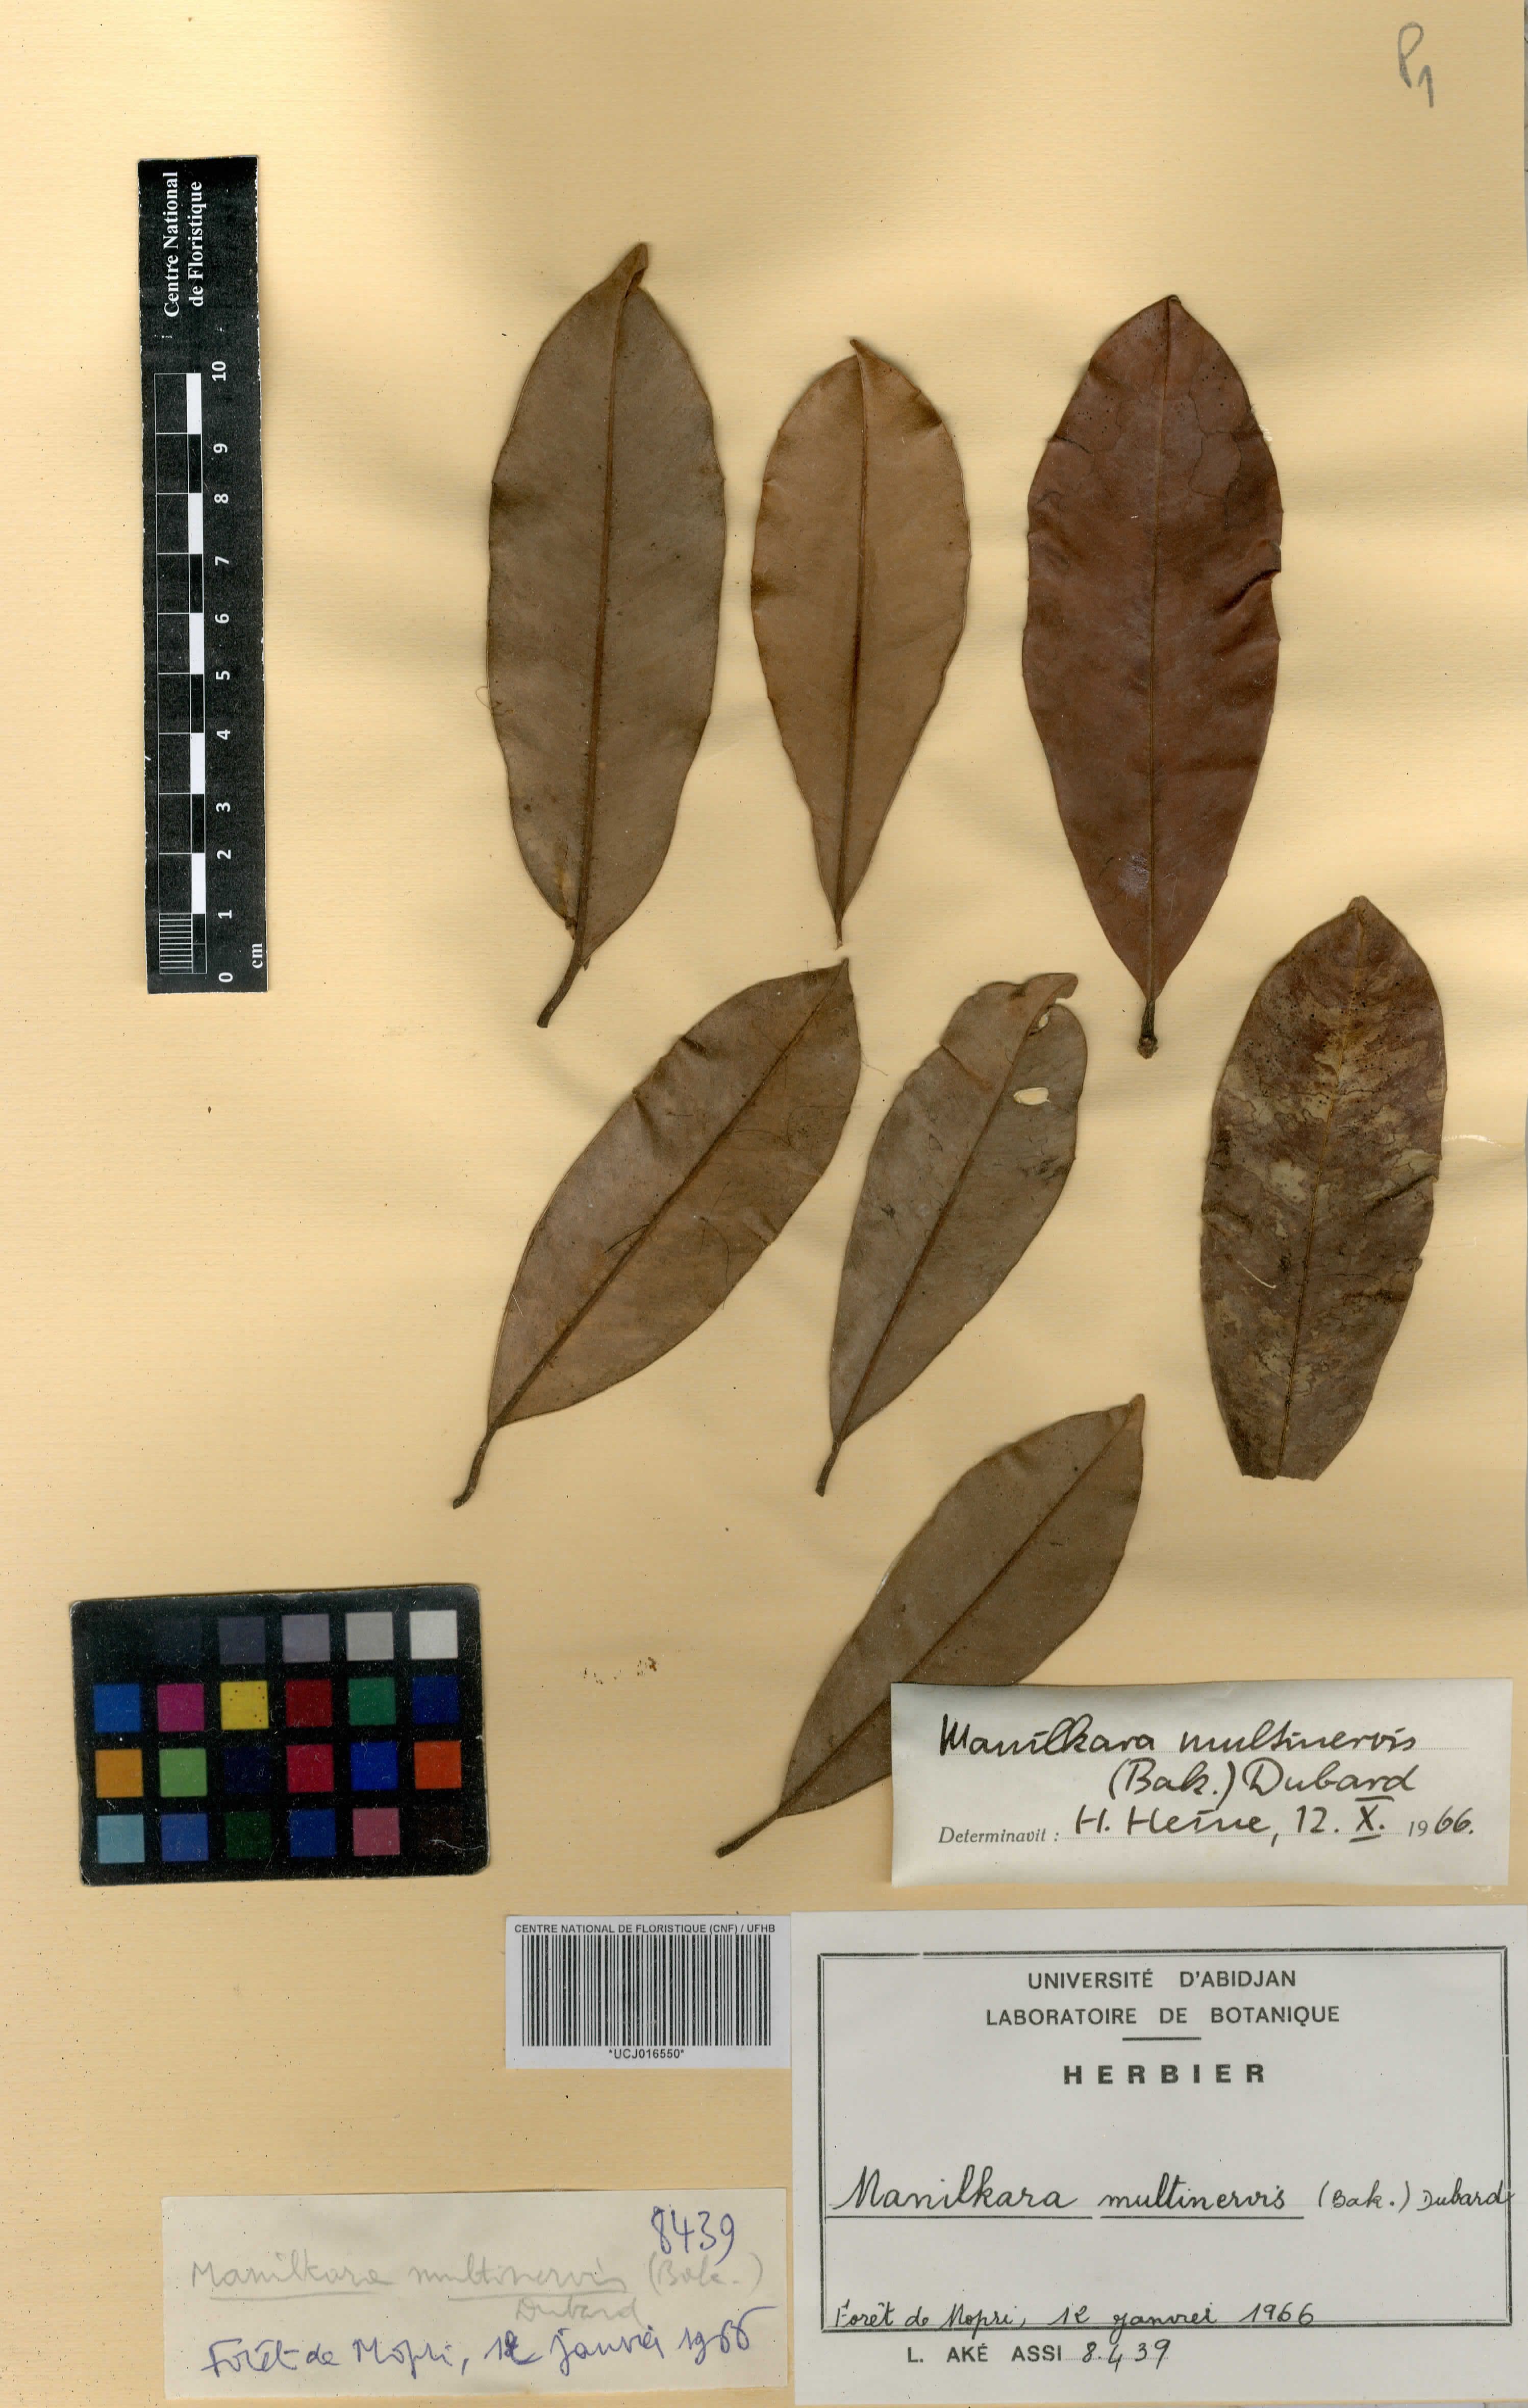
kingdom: Plantae
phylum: Tracheophyta
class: Magnoliopsida
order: Ericales
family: Sapotaceae
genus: Manilkara
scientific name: Manilkara obovata
